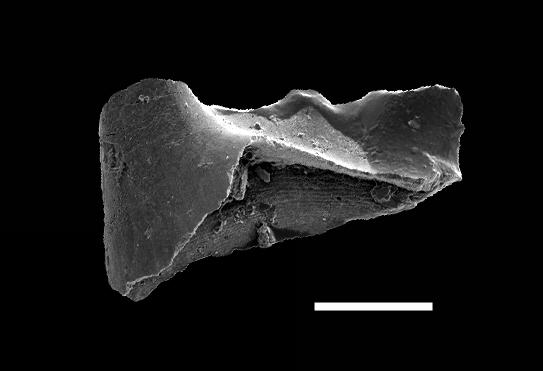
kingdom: Animalia
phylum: Chordata
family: Hibbardellidae
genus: Oulodus
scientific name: Oulodus
